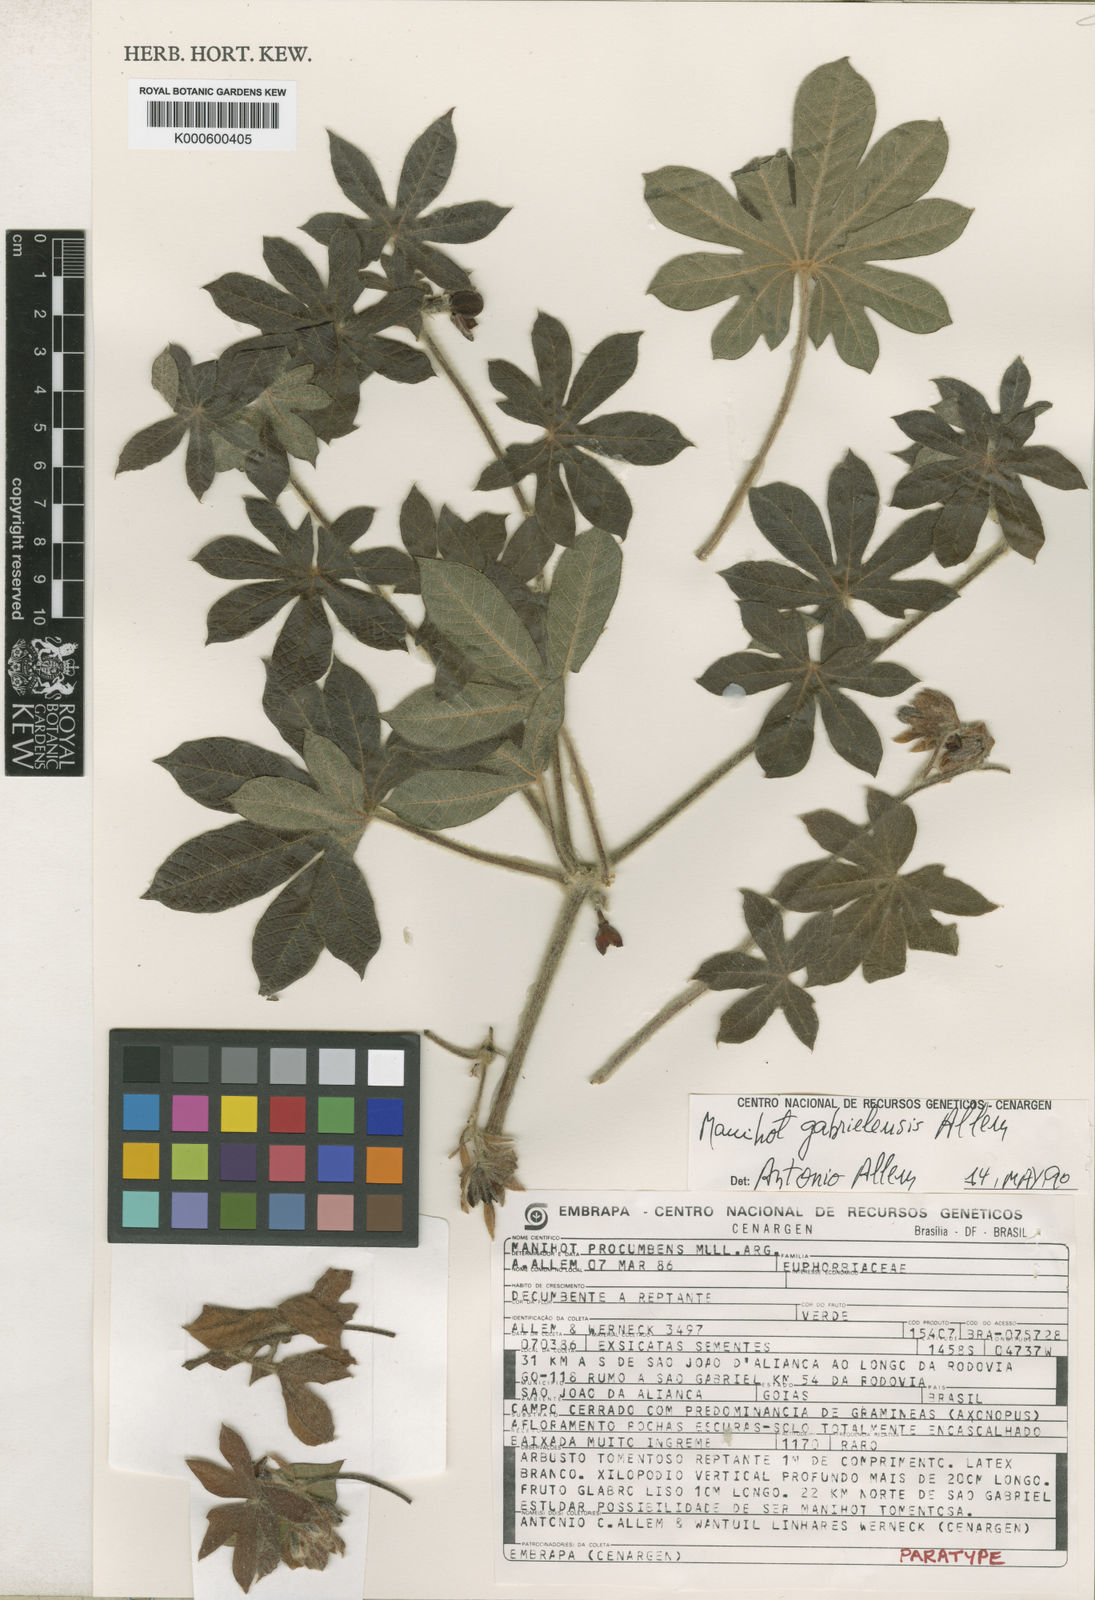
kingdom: Plantae
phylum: Tracheophyta
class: Magnoliopsida
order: Malpighiales
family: Euphorbiaceae
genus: Manihot
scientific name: Manihot
